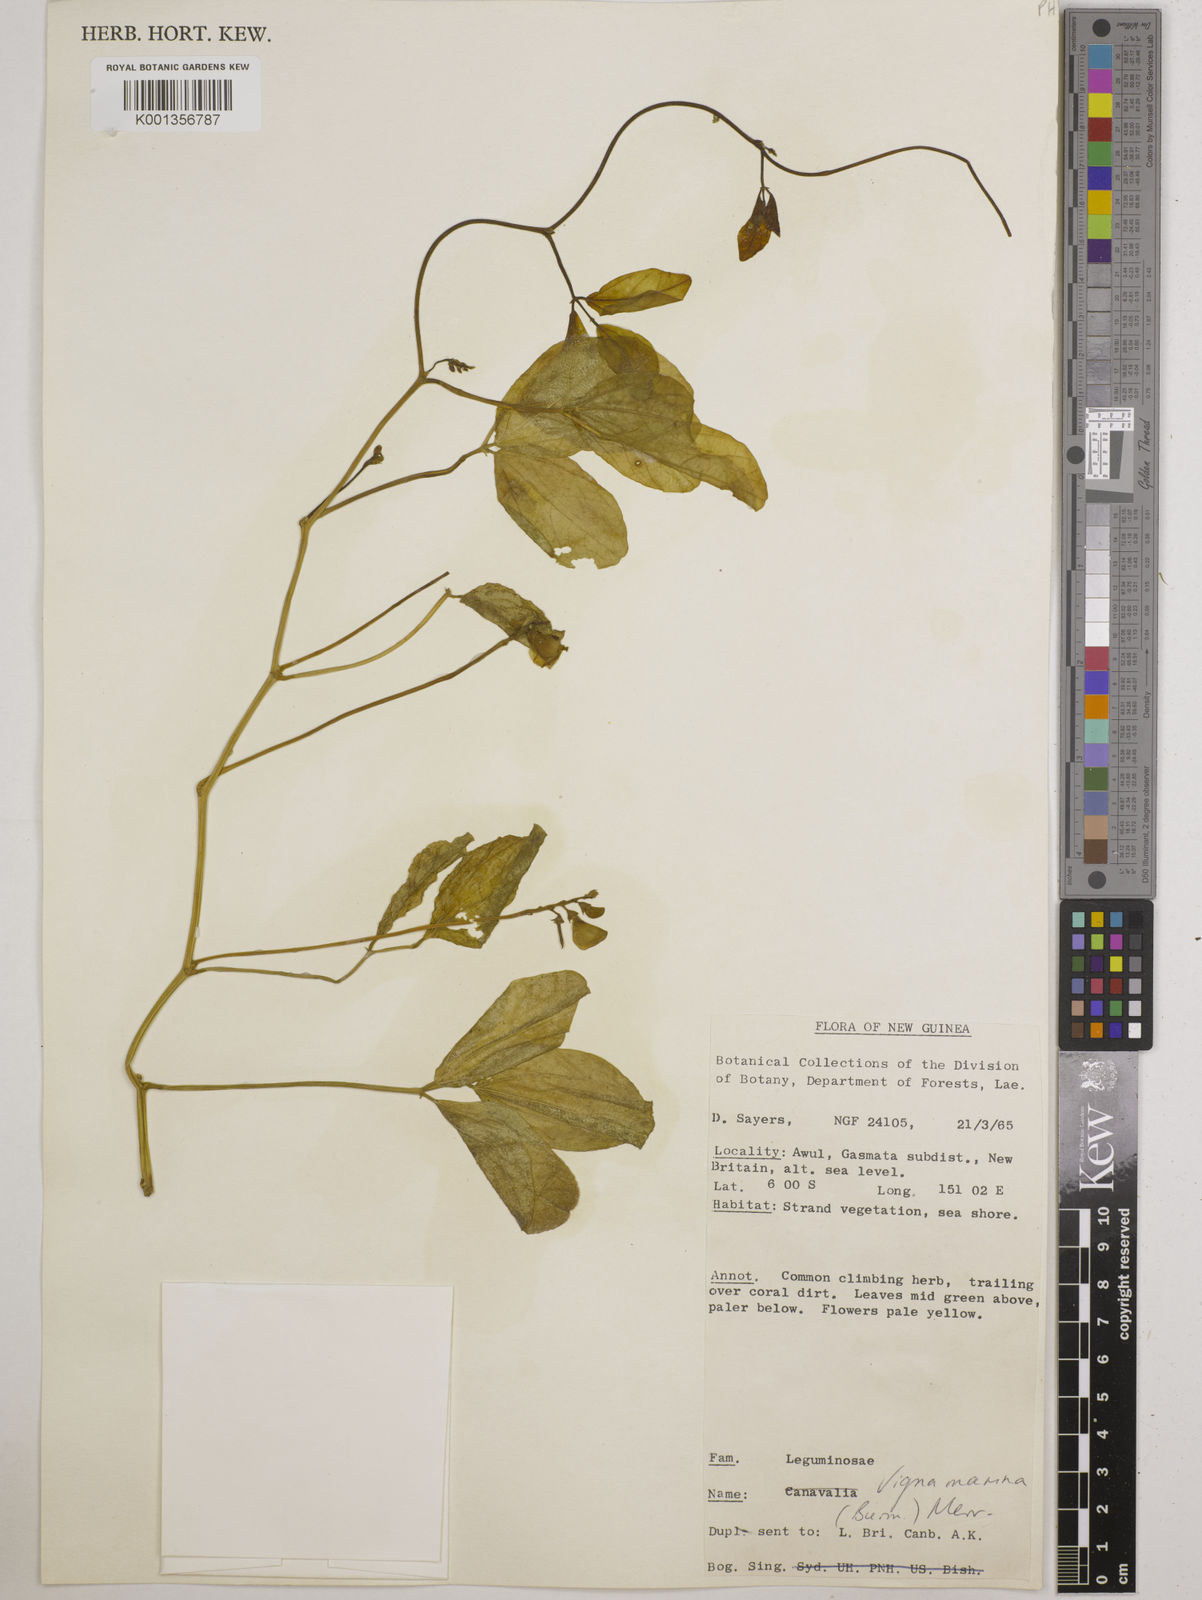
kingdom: Plantae
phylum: Tracheophyta
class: Magnoliopsida
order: Fabales
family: Fabaceae
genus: Vigna
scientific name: Vigna marina
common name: Dune-bean
